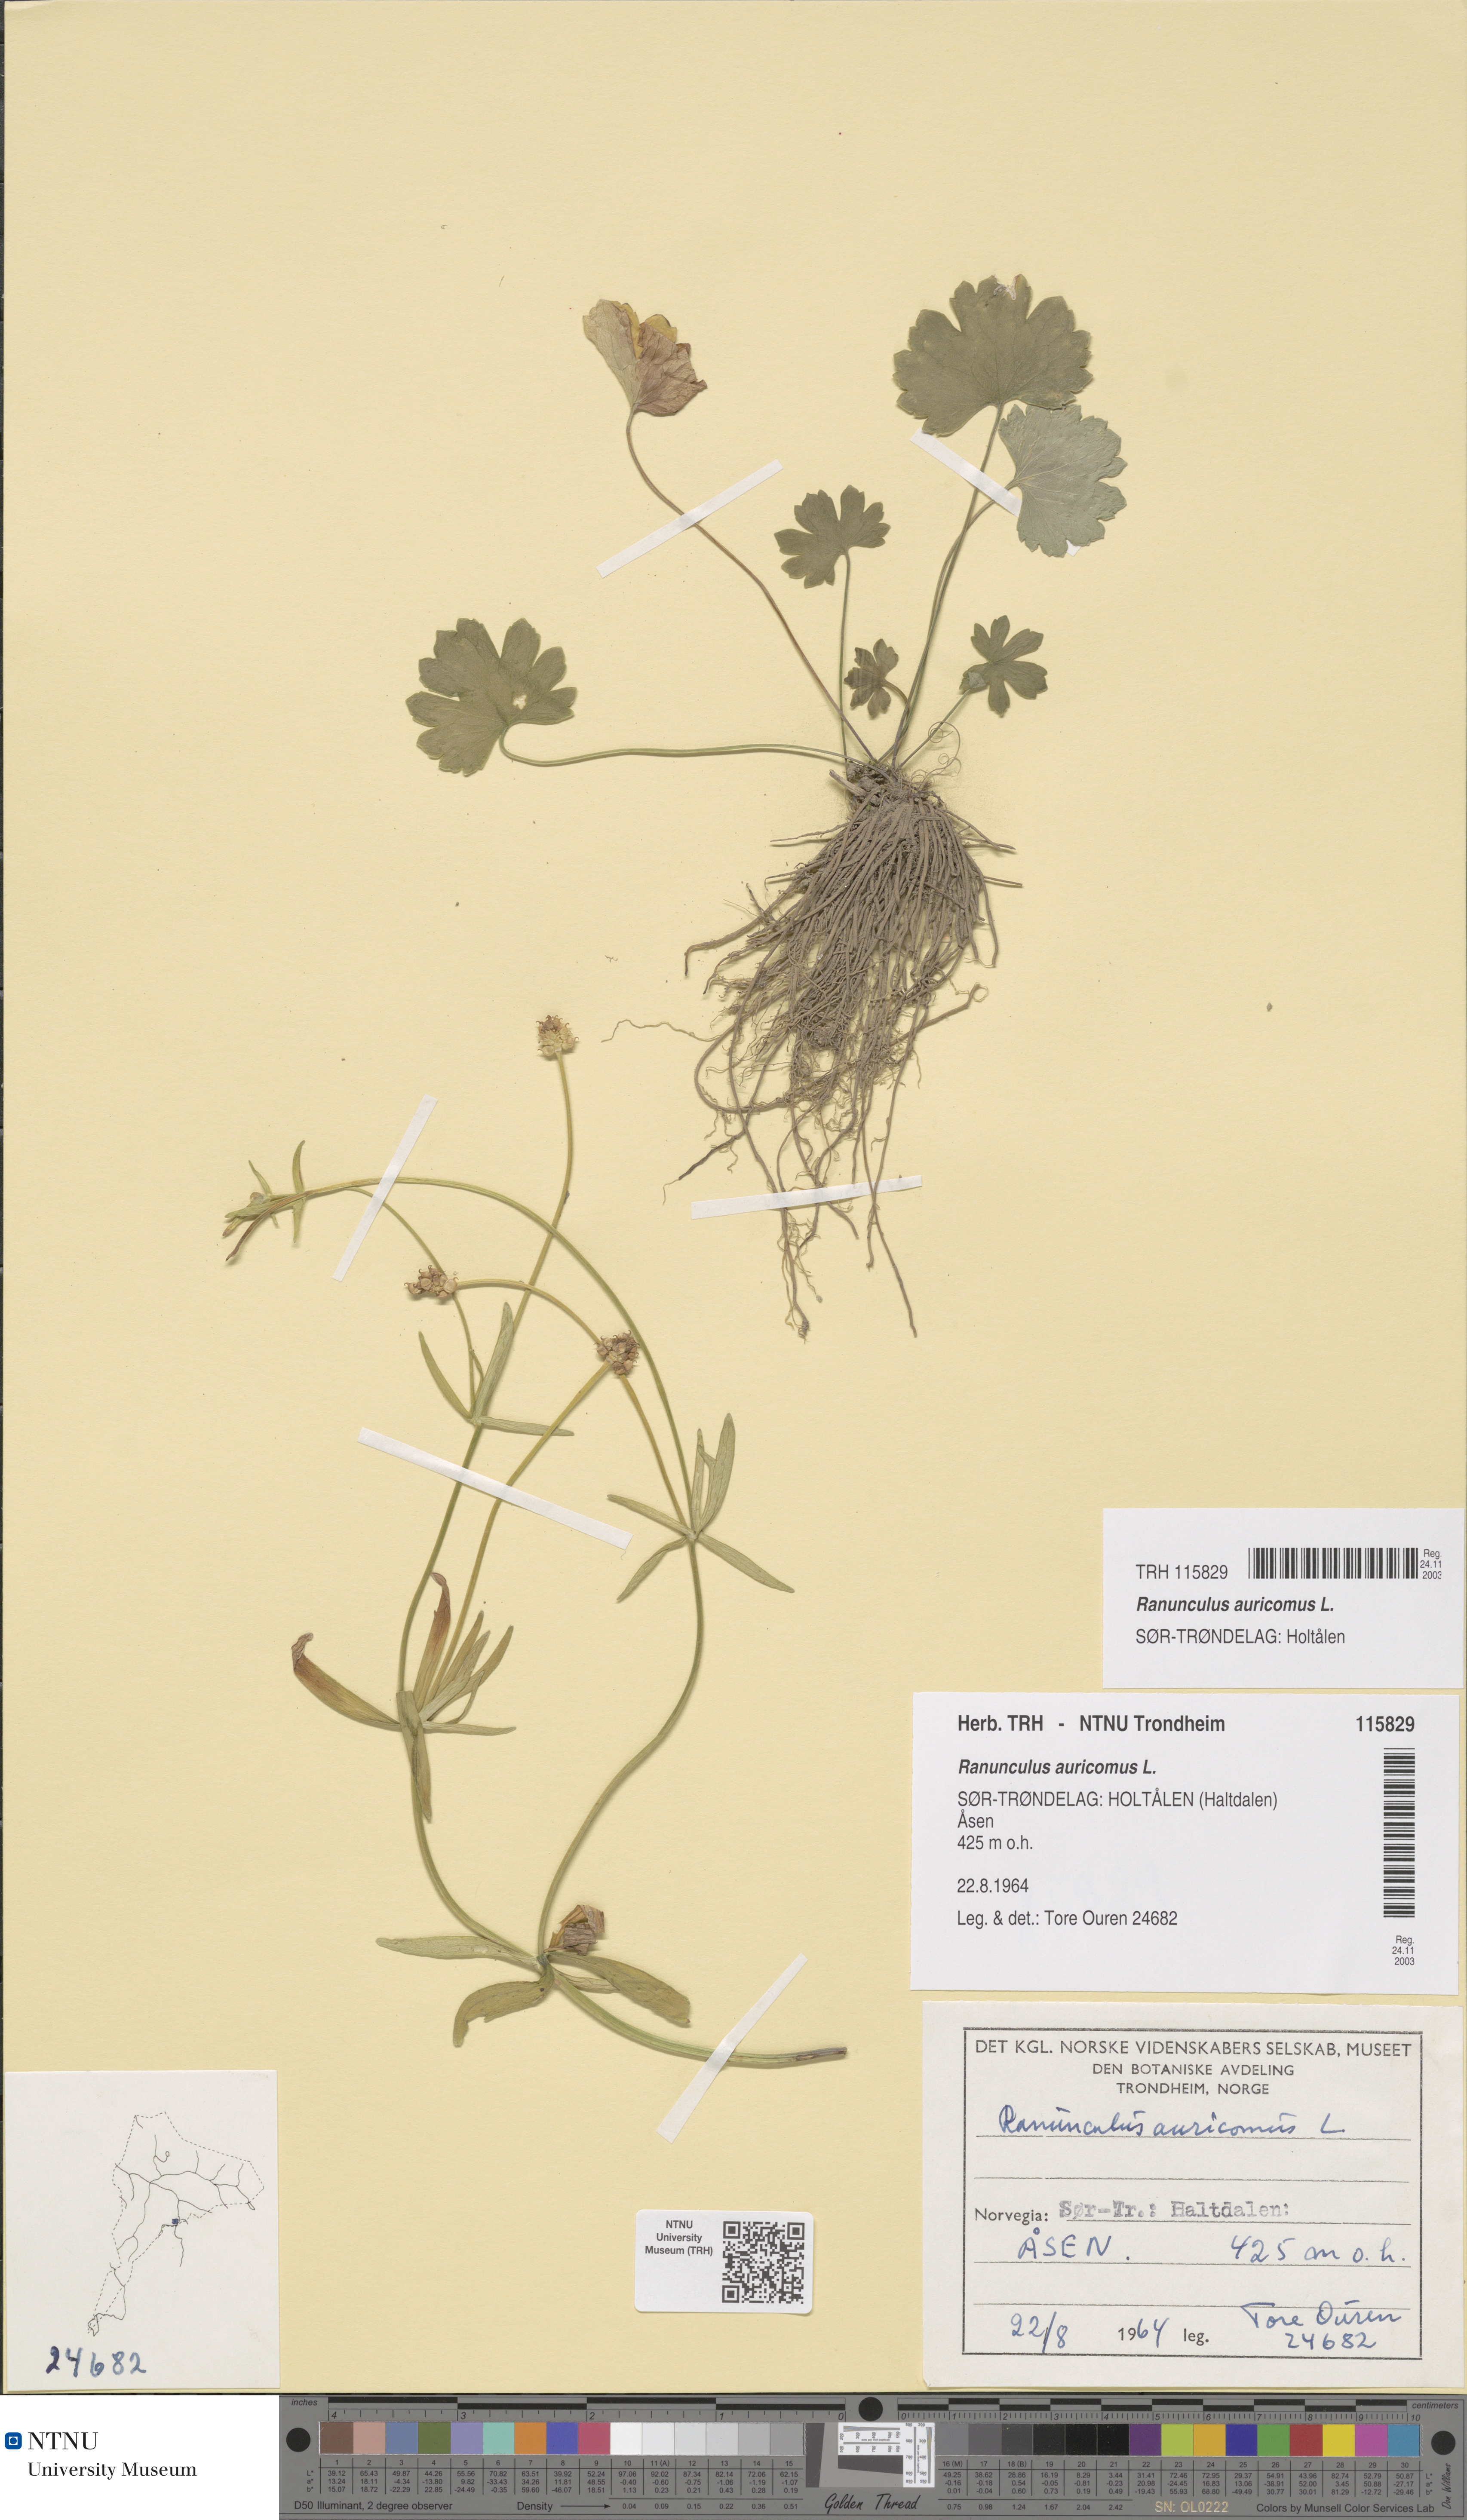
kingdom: Plantae
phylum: Tracheophyta
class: Magnoliopsida
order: Ranunculales
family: Ranunculaceae
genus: Ranunculus
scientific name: Ranunculus auricomus
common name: Goldilocks buttercup
